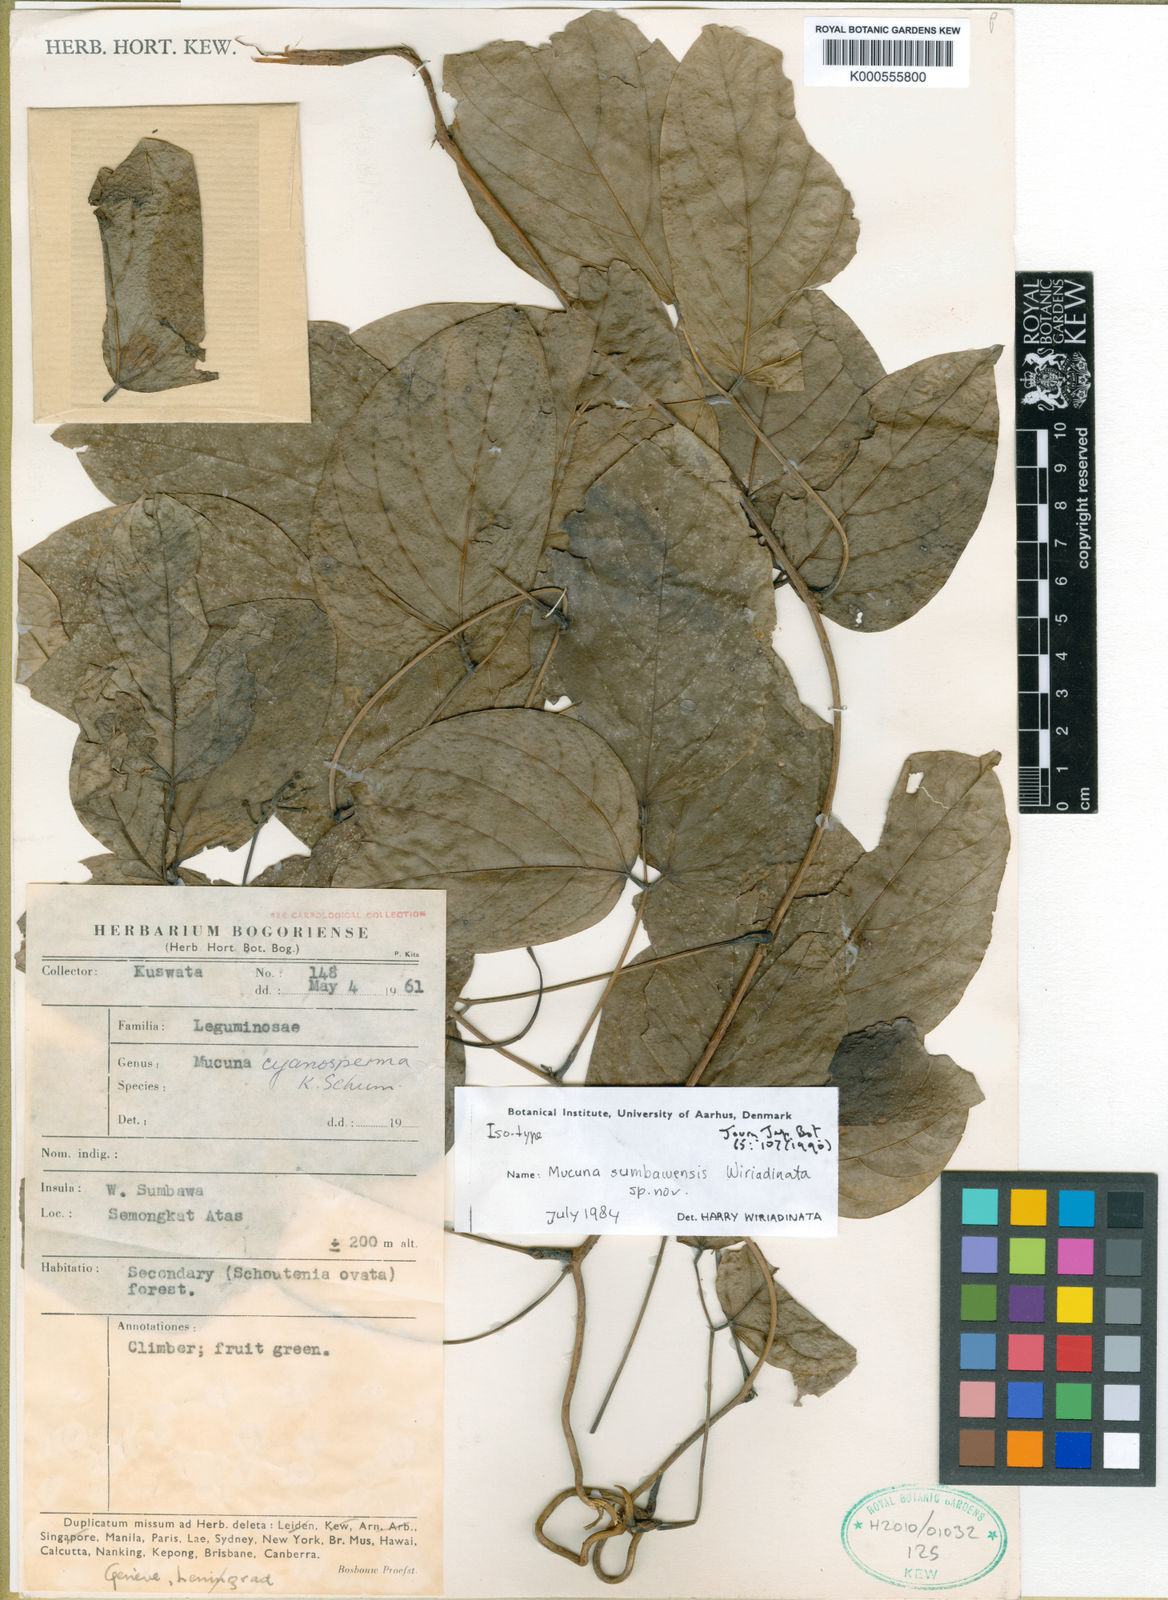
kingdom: Plantae
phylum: Tracheophyta
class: Magnoliopsida
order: Fabales
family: Fabaceae
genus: Mucuna
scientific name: Mucuna
